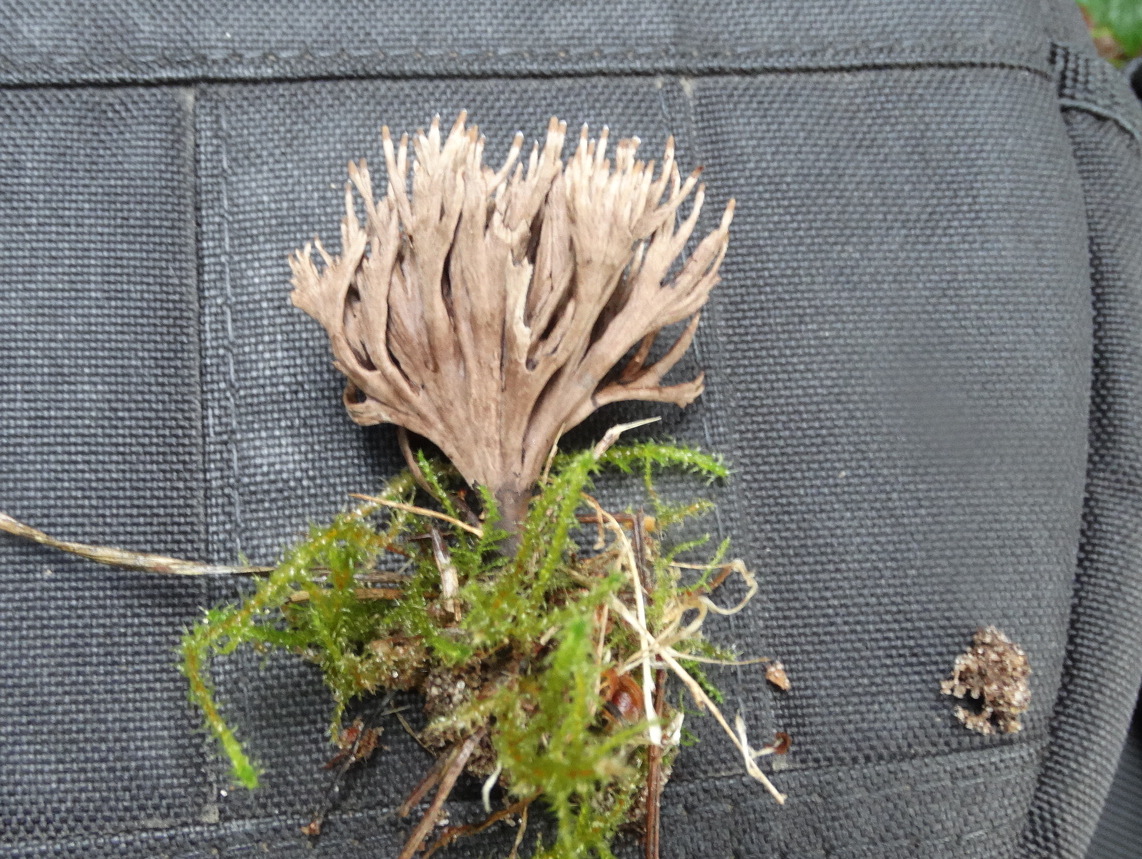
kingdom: Fungi
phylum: Basidiomycota
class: Agaricomycetes
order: Thelephorales
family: Thelephoraceae
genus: Thelephora
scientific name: Thelephora palmata
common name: grenet frynsesvamp
